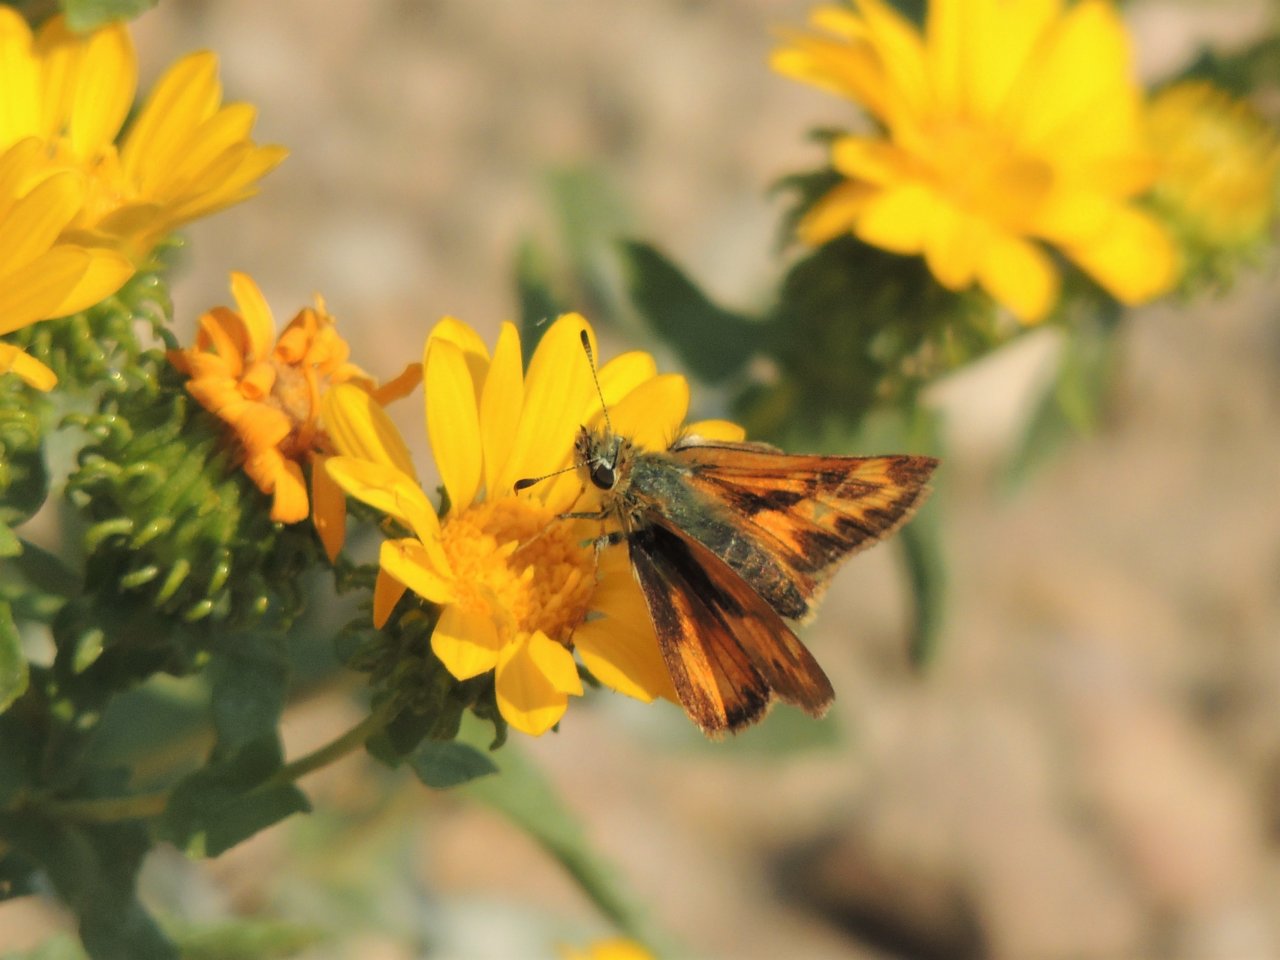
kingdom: Animalia
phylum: Arthropoda
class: Insecta
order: Lepidoptera
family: Hesperiidae
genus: Ochlodes
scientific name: Ochlodes sylvanoides
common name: Woodland Skipper
